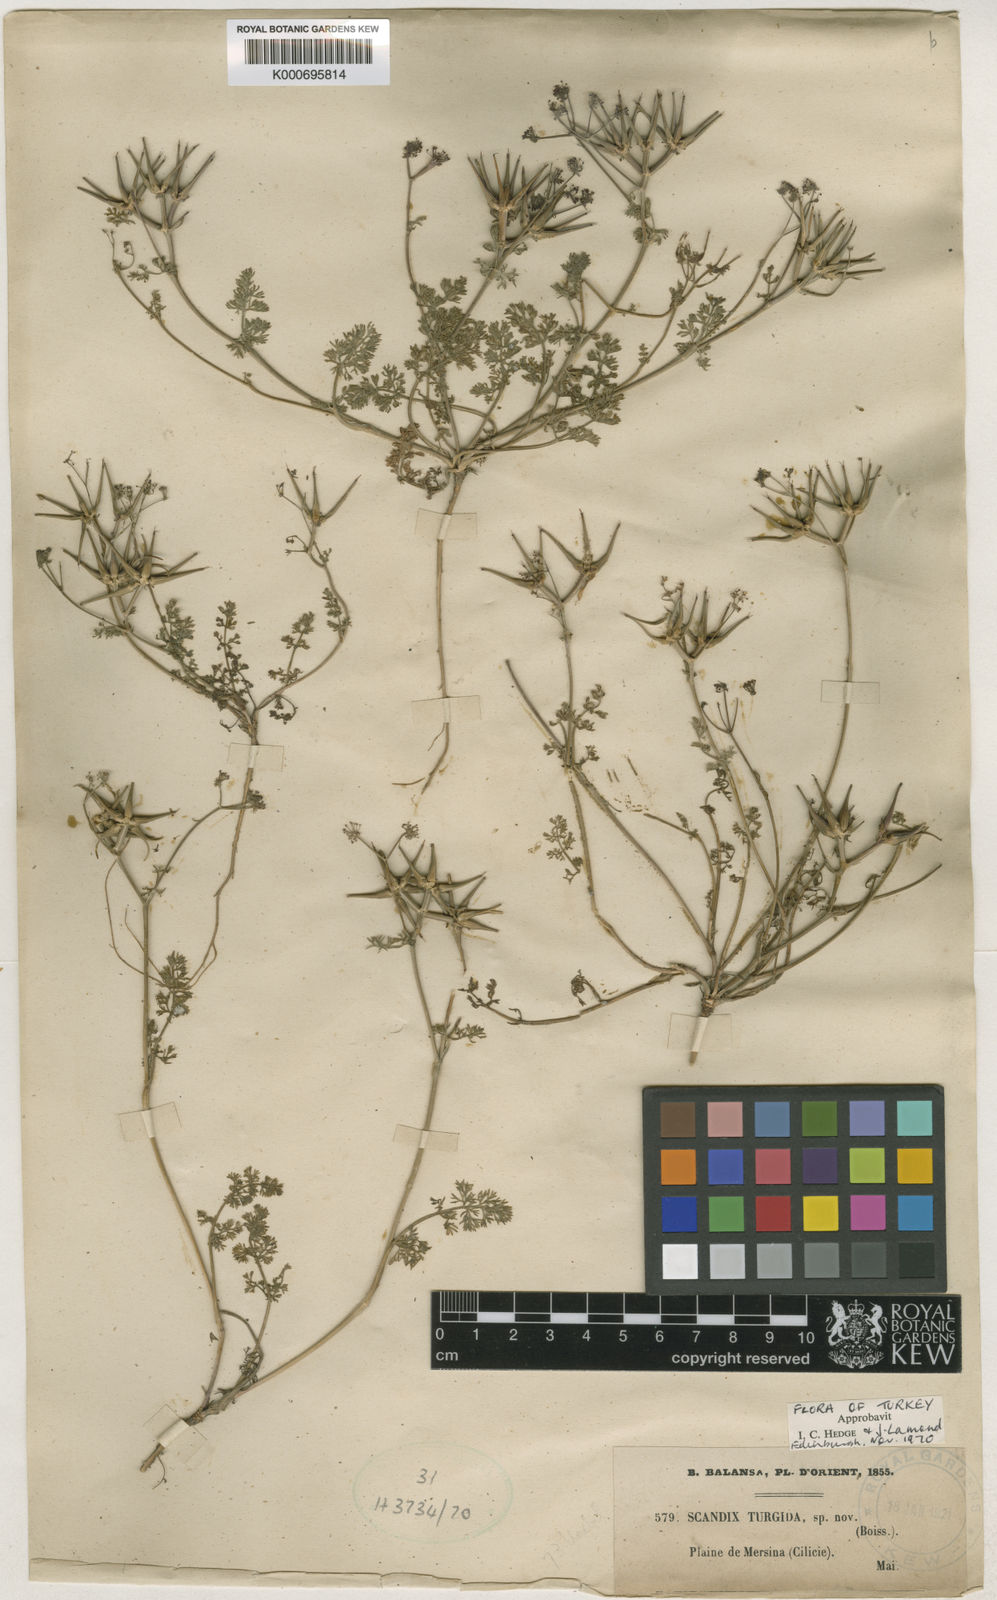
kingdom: Plantae
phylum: Tracheophyta
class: Magnoliopsida
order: Apiales
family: Apiaceae
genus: Scandix
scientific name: Scandix turgida
